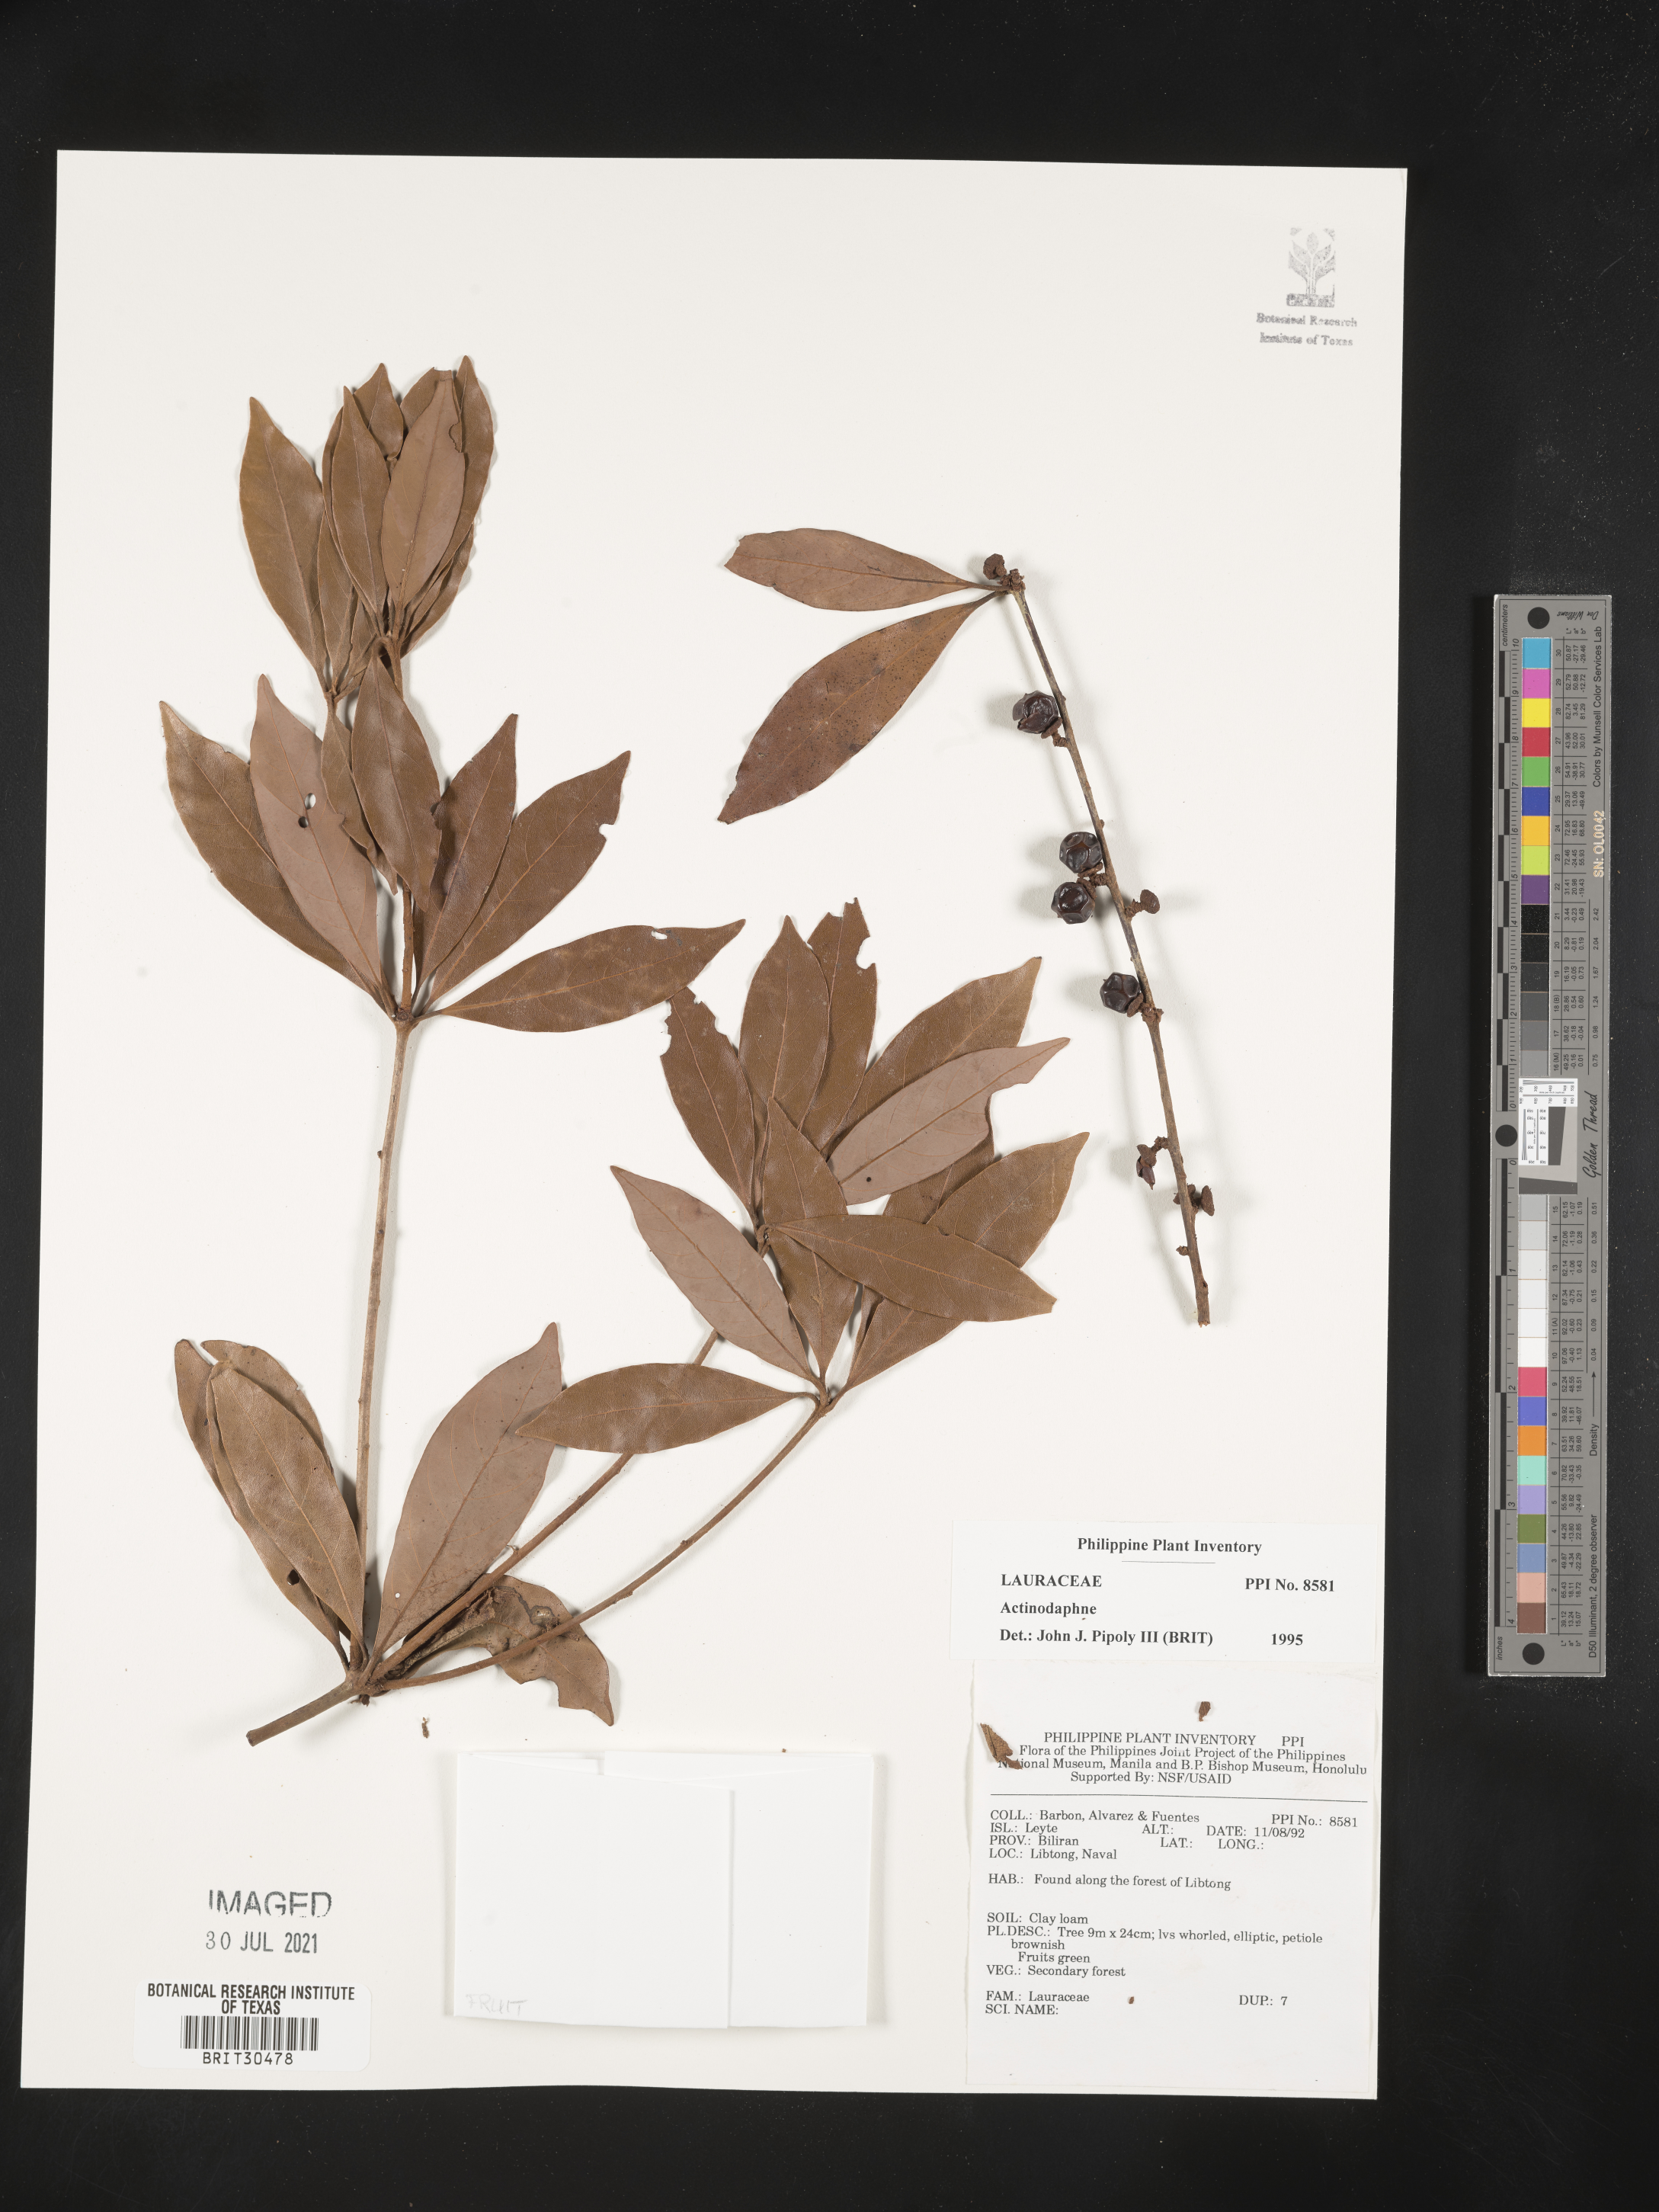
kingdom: Plantae
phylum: Tracheophyta
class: Magnoliopsida
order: Laurales
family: Lauraceae
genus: Actinodaphne
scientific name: Actinodaphne
